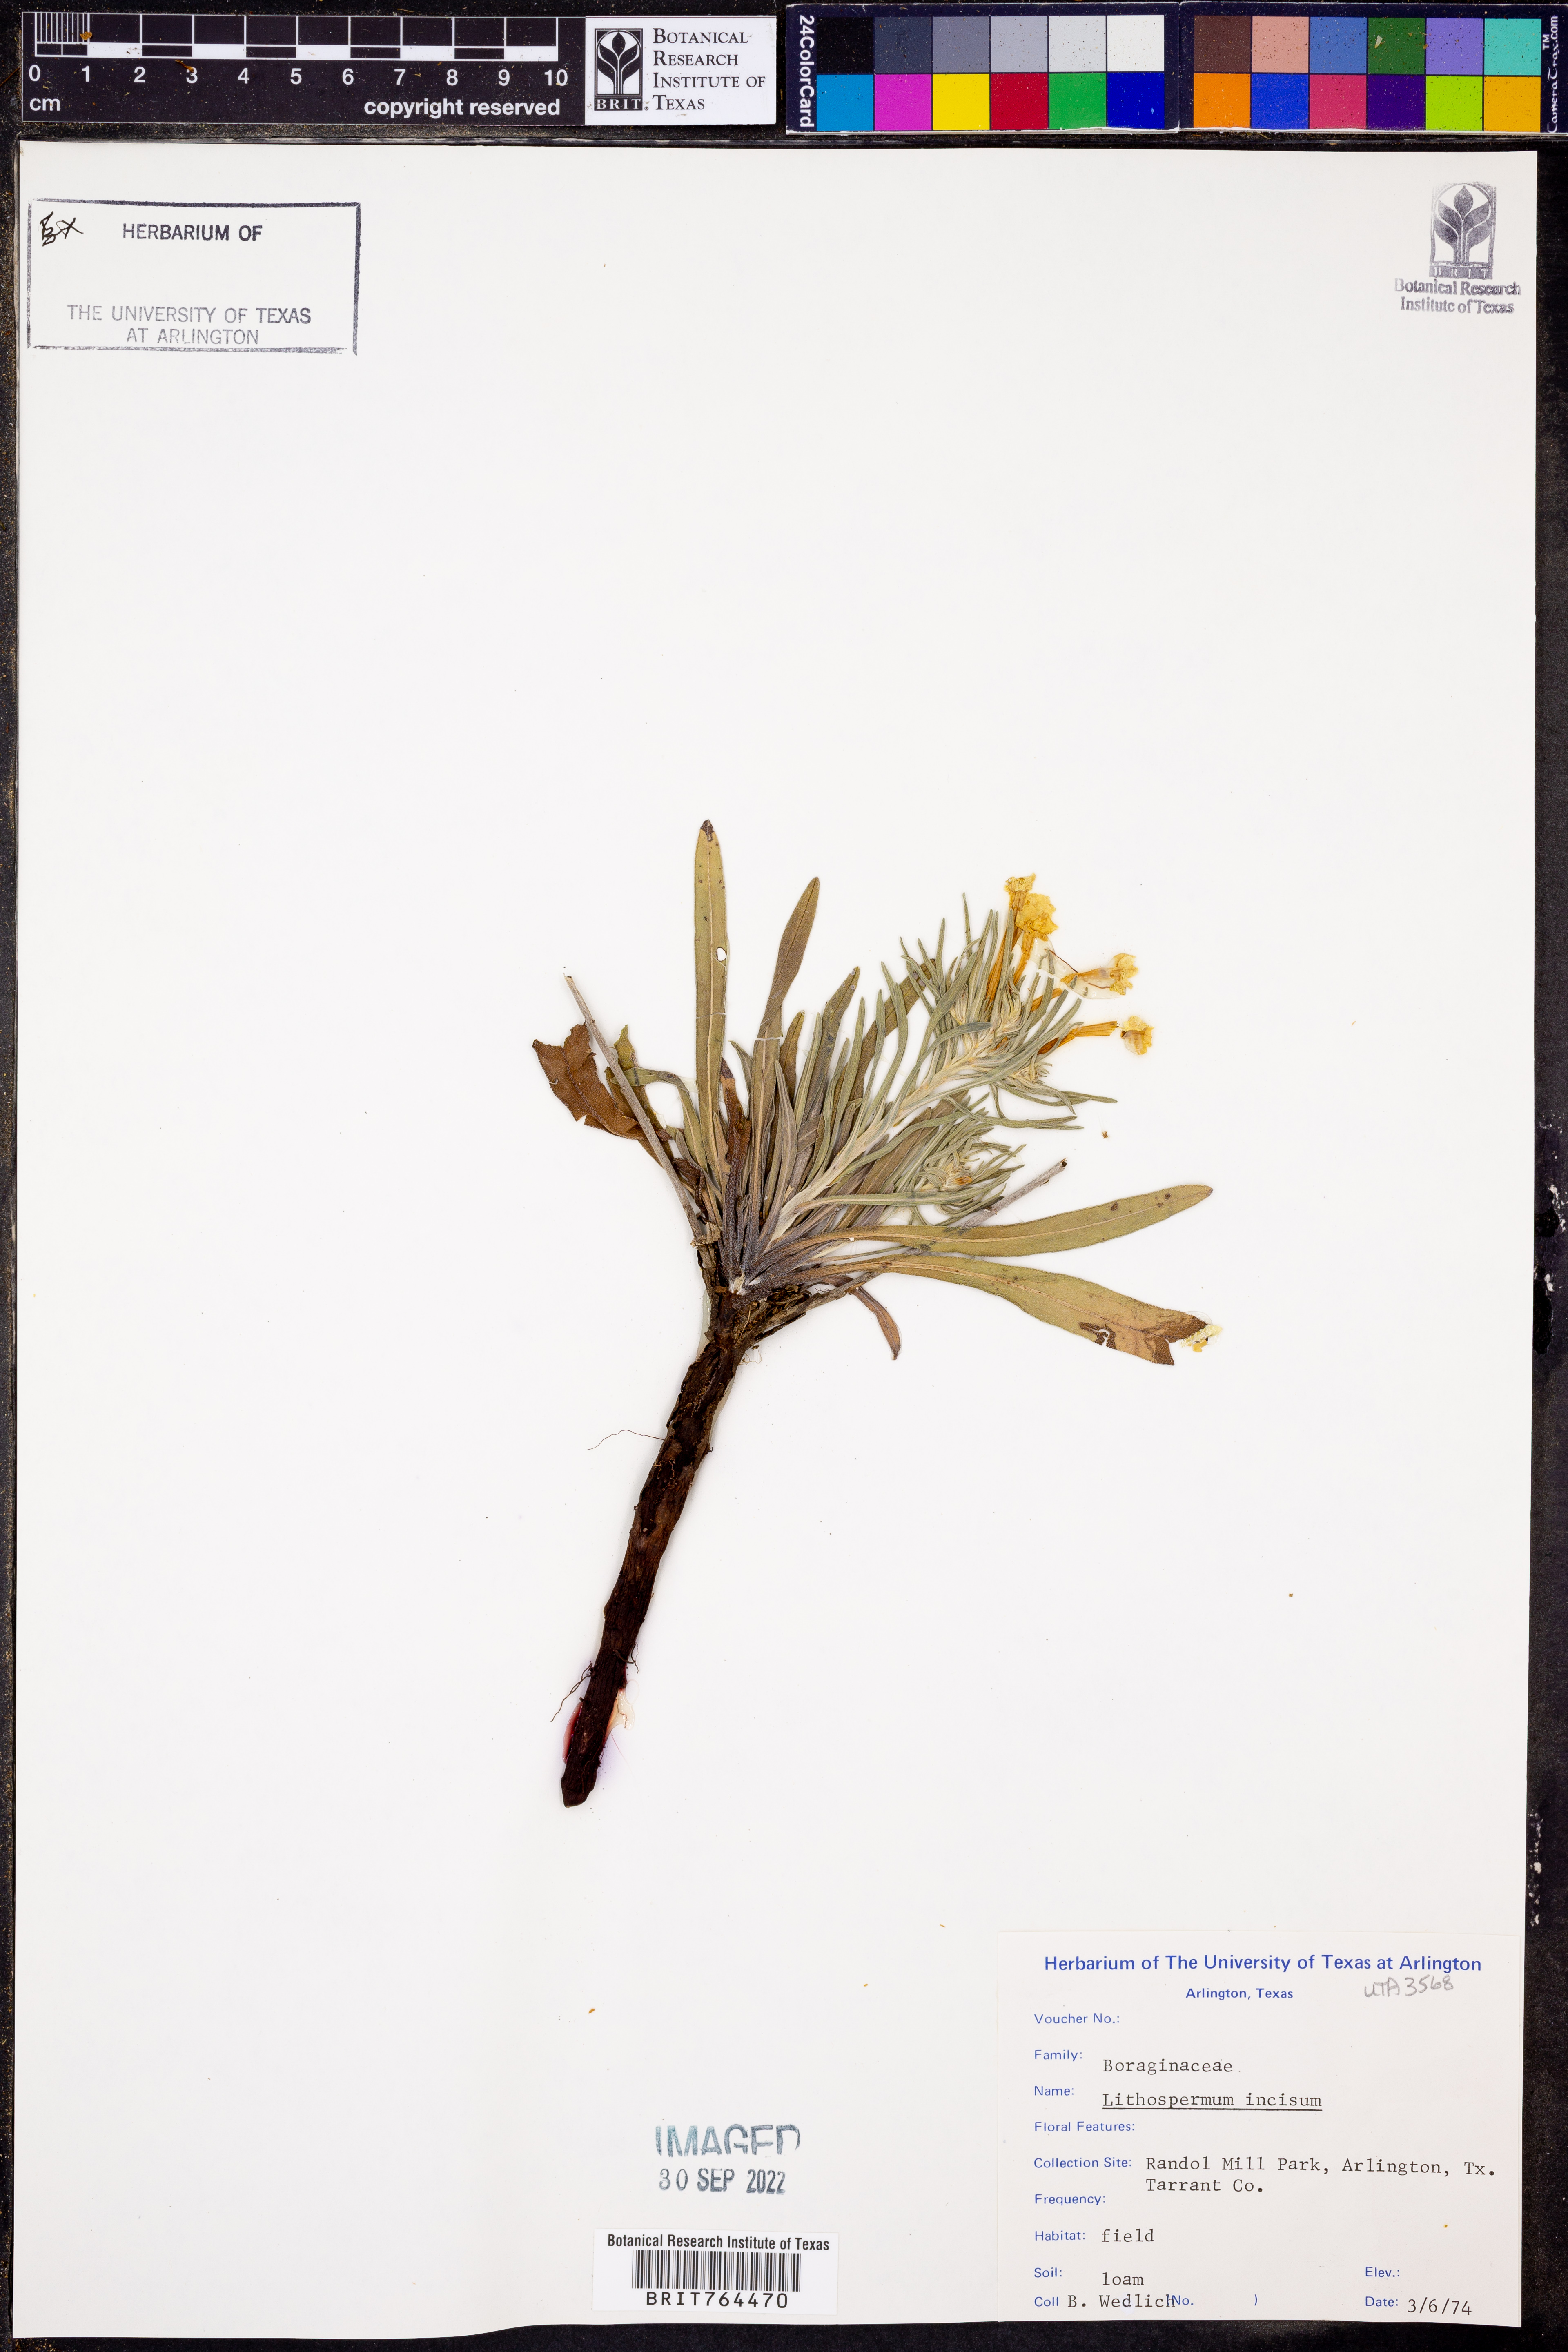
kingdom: Plantae
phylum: Tracheophyta
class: Magnoliopsida
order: Boraginales
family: Boraginaceae
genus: Lithospermum
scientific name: Lithospermum incisum
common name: Fringed gromwell
